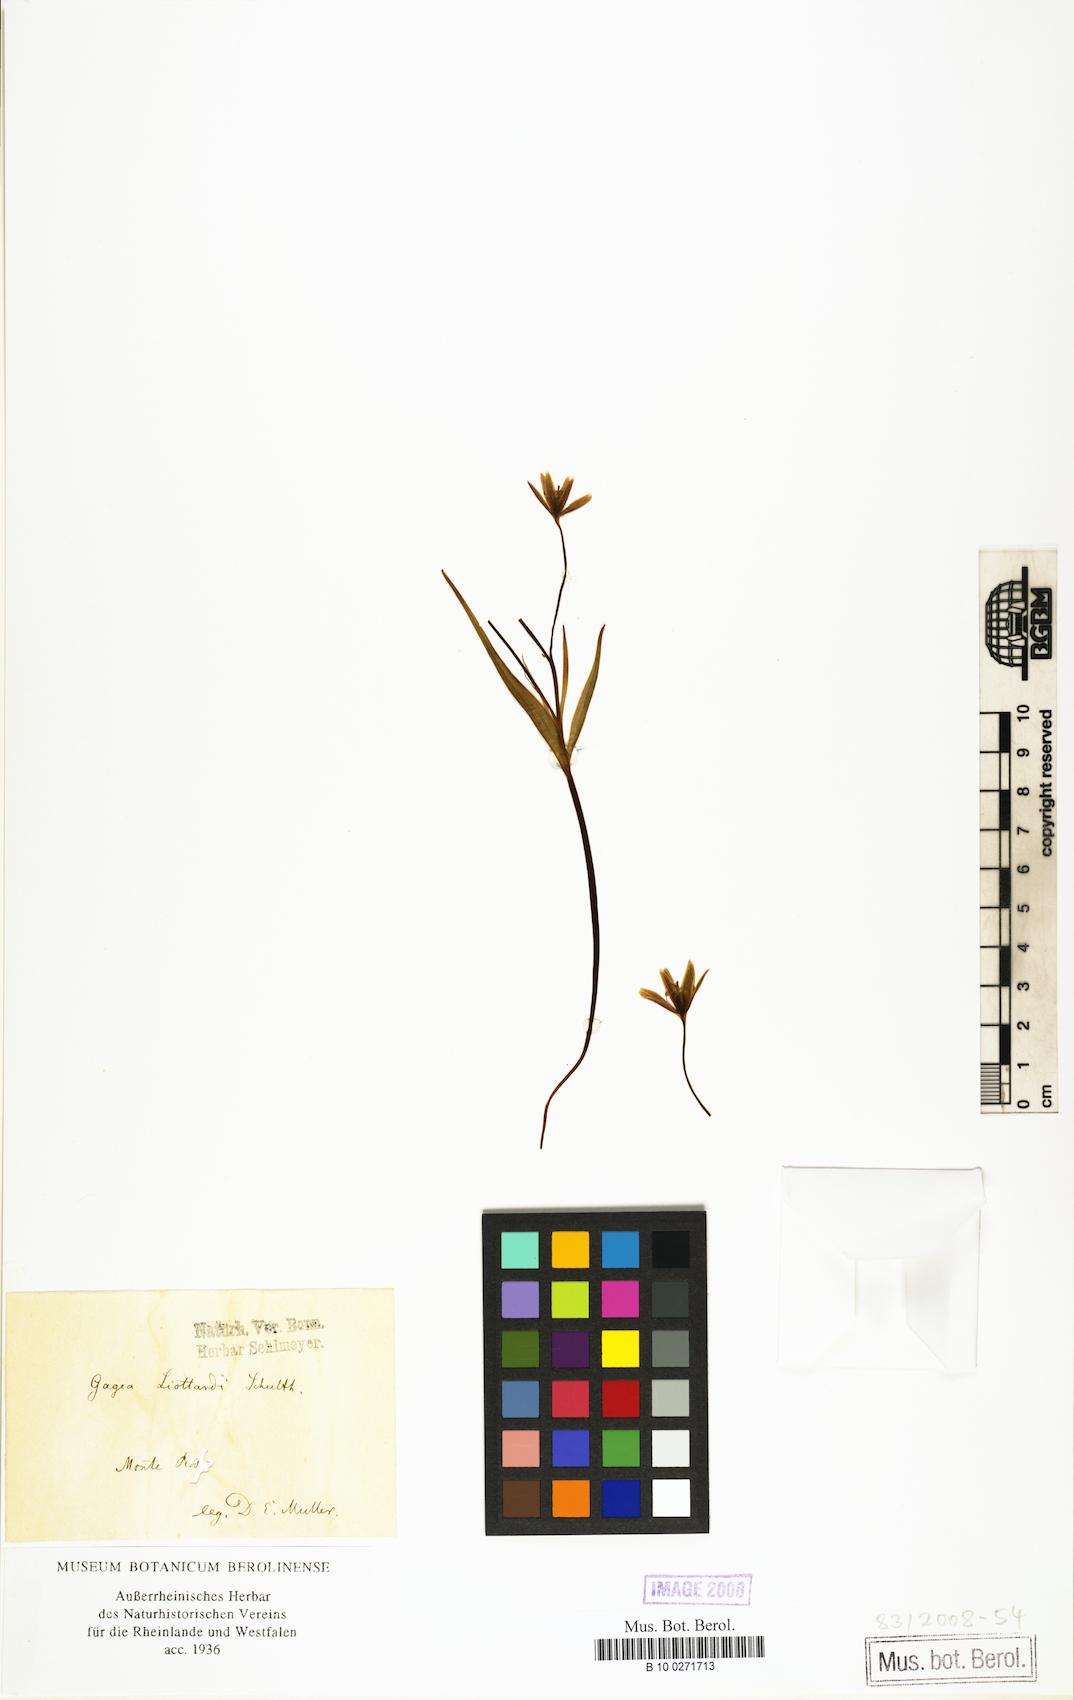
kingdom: Plantae
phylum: Tracheophyta
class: Liliopsida
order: Liliales
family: Liliaceae
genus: Gagea
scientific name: Gagea bohemica
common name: Early star-of-bethlehem
